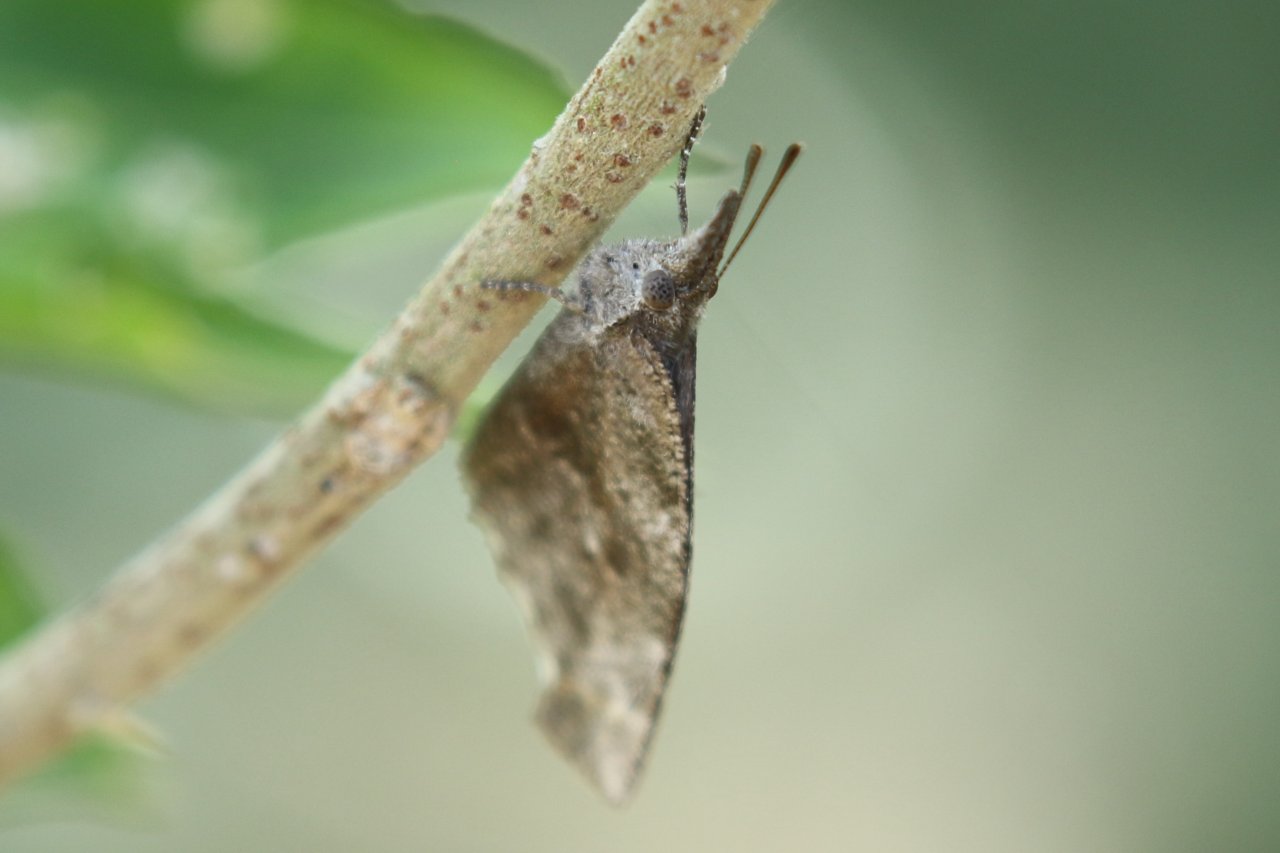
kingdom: Animalia
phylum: Arthropoda
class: Insecta
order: Lepidoptera
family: Nymphalidae
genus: Libytheana
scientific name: Libytheana carinenta
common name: American Snout
